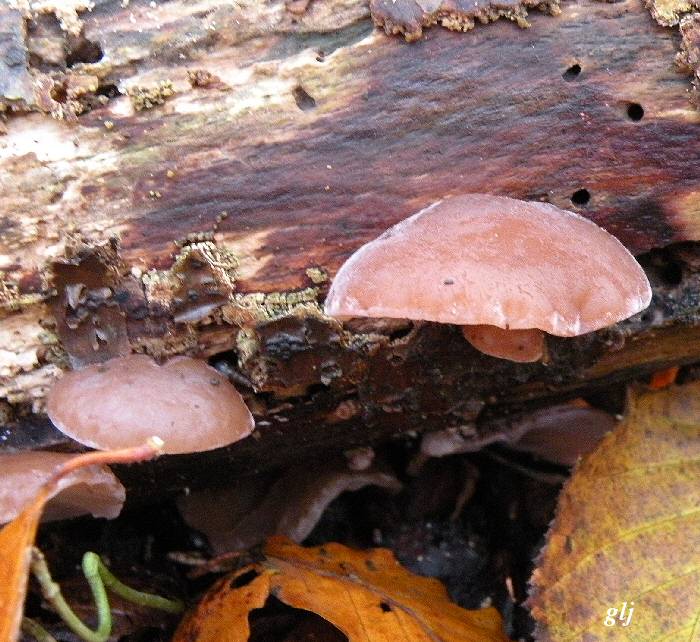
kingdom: Fungi
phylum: Basidiomycota
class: Agaricomycetes
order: Auriculariales
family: Auriculariaceae
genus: Auricularia
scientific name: Auricularia auricula-judae
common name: almindelig judasøre
